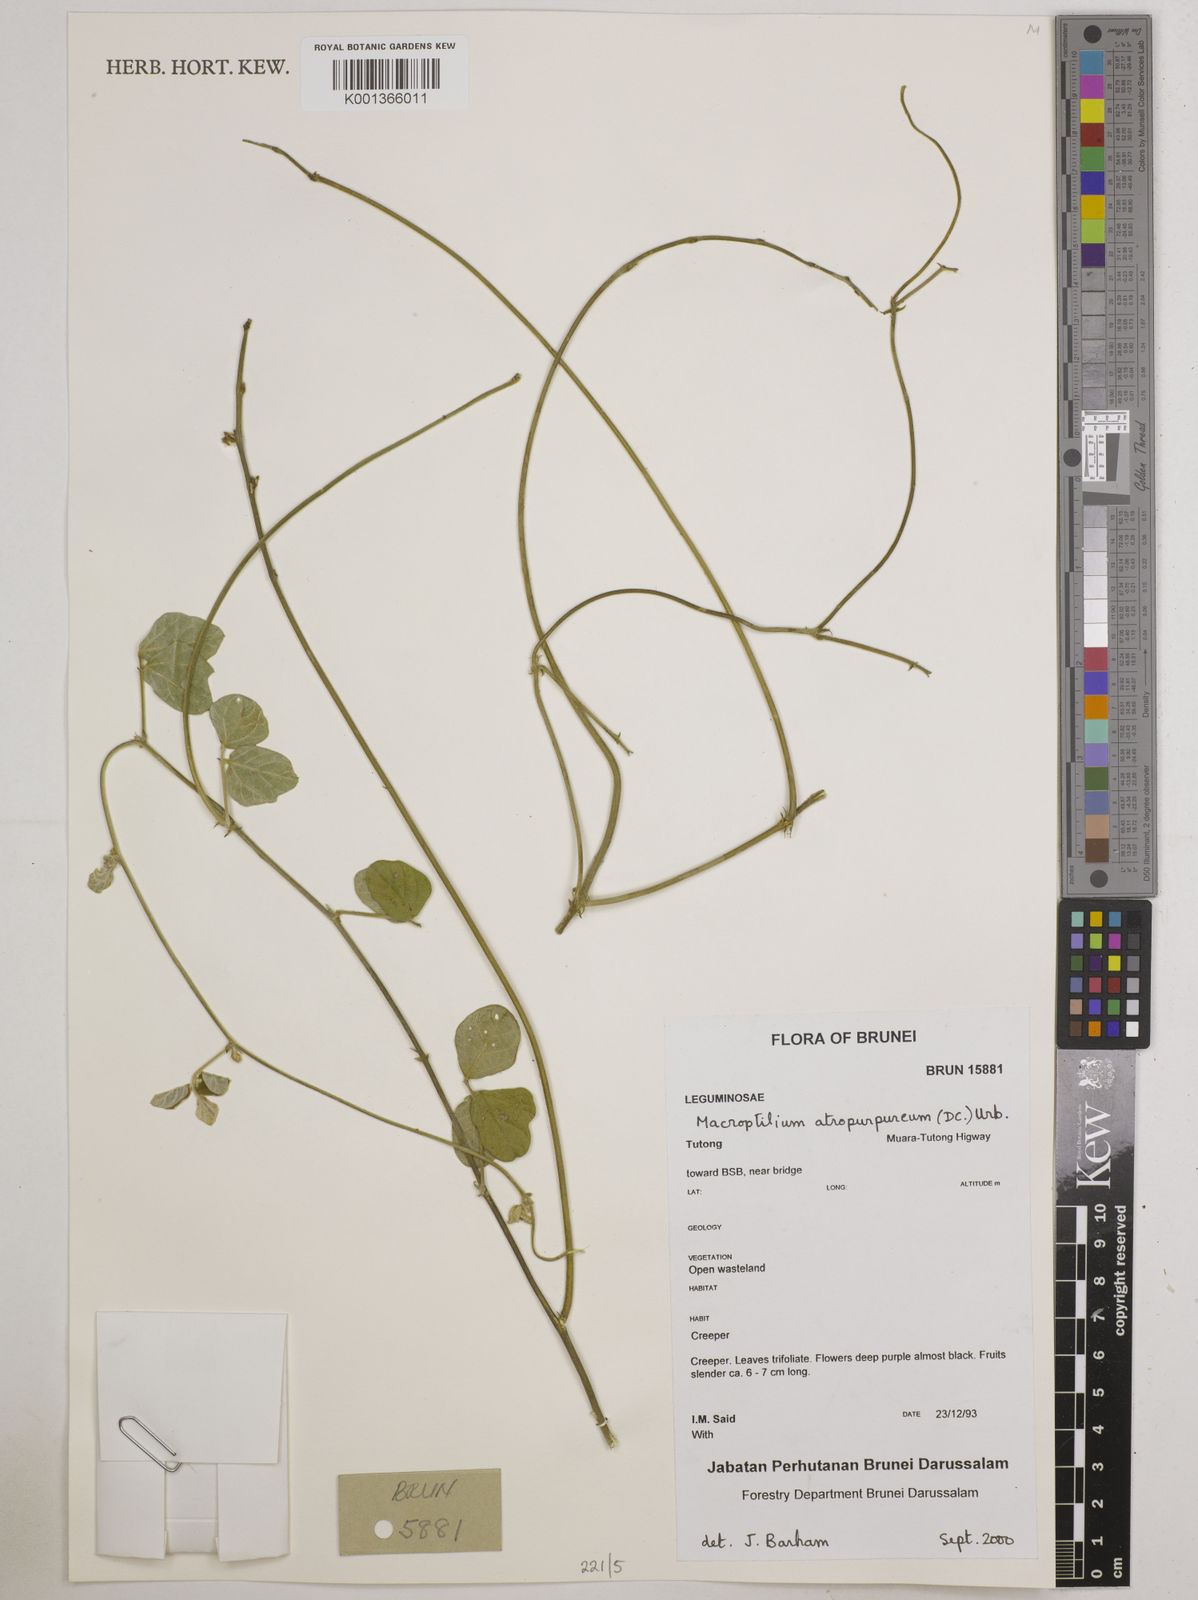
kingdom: Plantae
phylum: Tracheophyta
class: Magnoliopsida
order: Fabales
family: Fabaceae
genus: Macroptilium
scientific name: Macroptilium atropurpureum
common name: Purple bushbean
